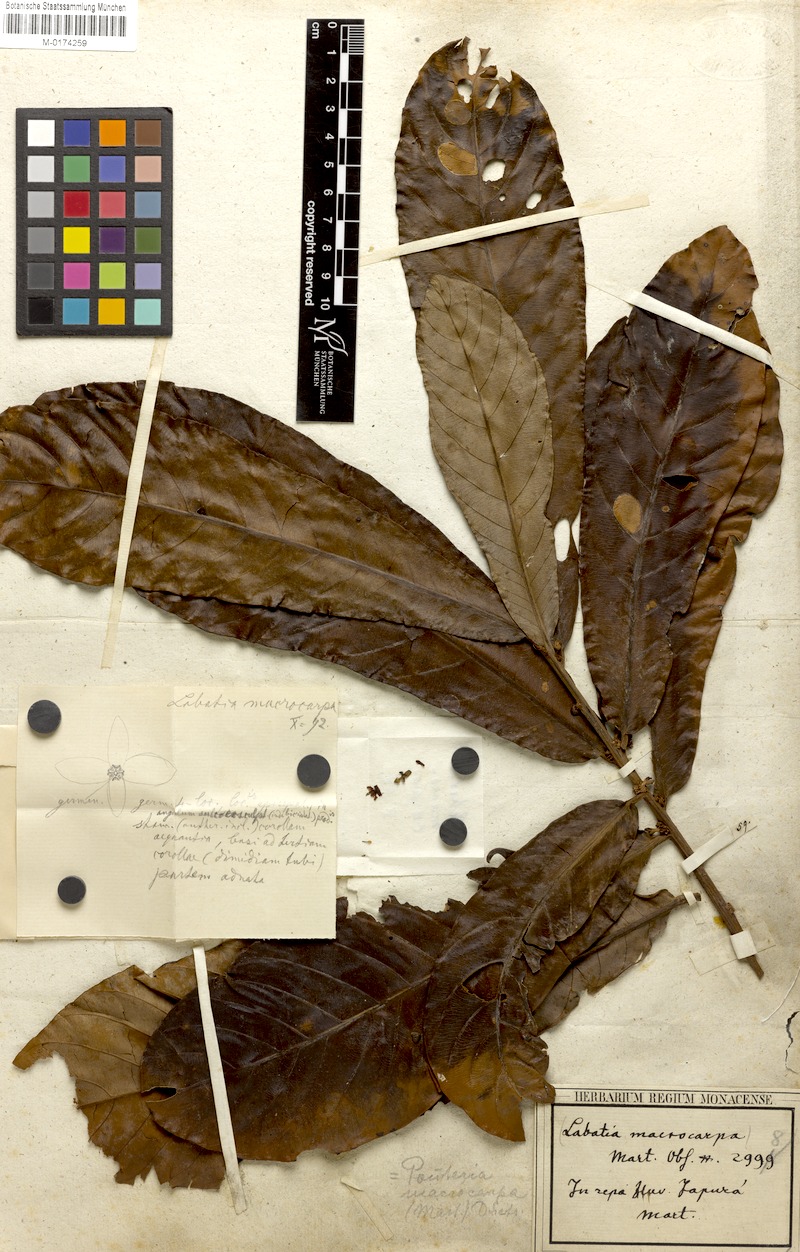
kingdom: Plantae
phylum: Tracheophyta
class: Magnoliopsida
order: Ericales
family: Sapotaceae
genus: Pouteria
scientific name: Pouteria macrocarpa
